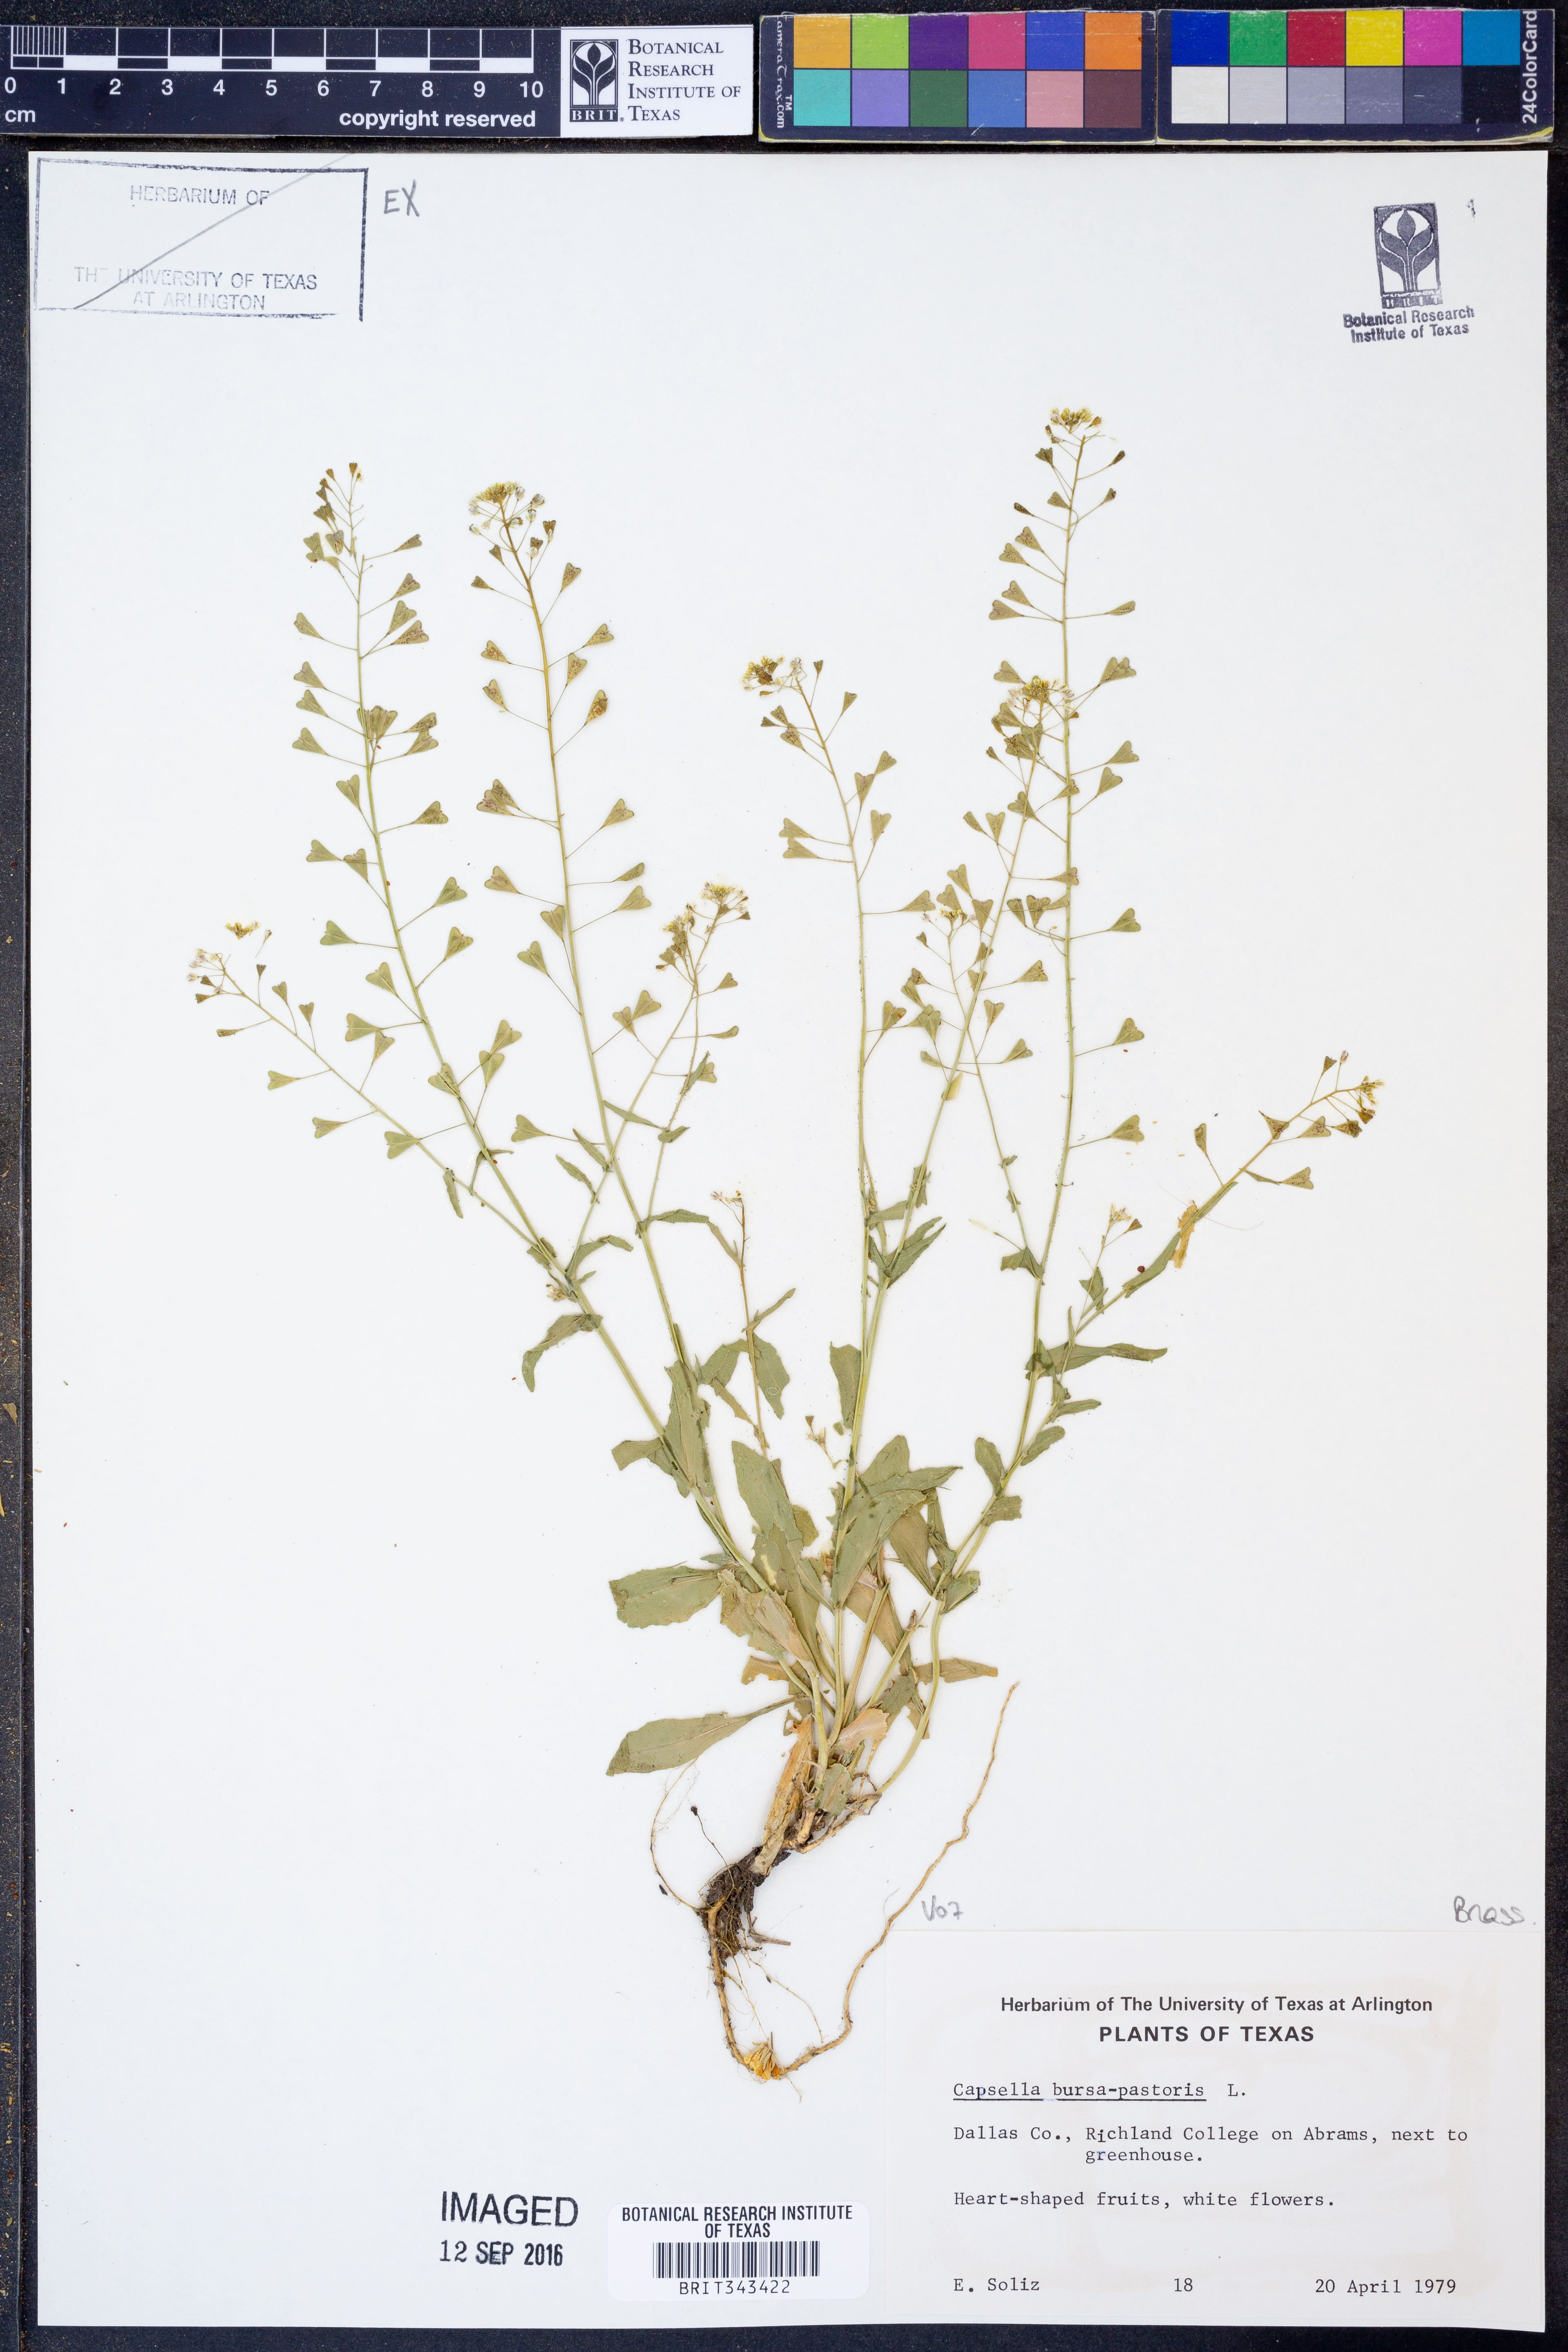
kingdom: Plantae
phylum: Tracheophyta
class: Magnoliopsida
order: Brassicales
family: Brassicaceae
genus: Capsella
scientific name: Capsella bursa-pastoris
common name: Shepherd's purse
